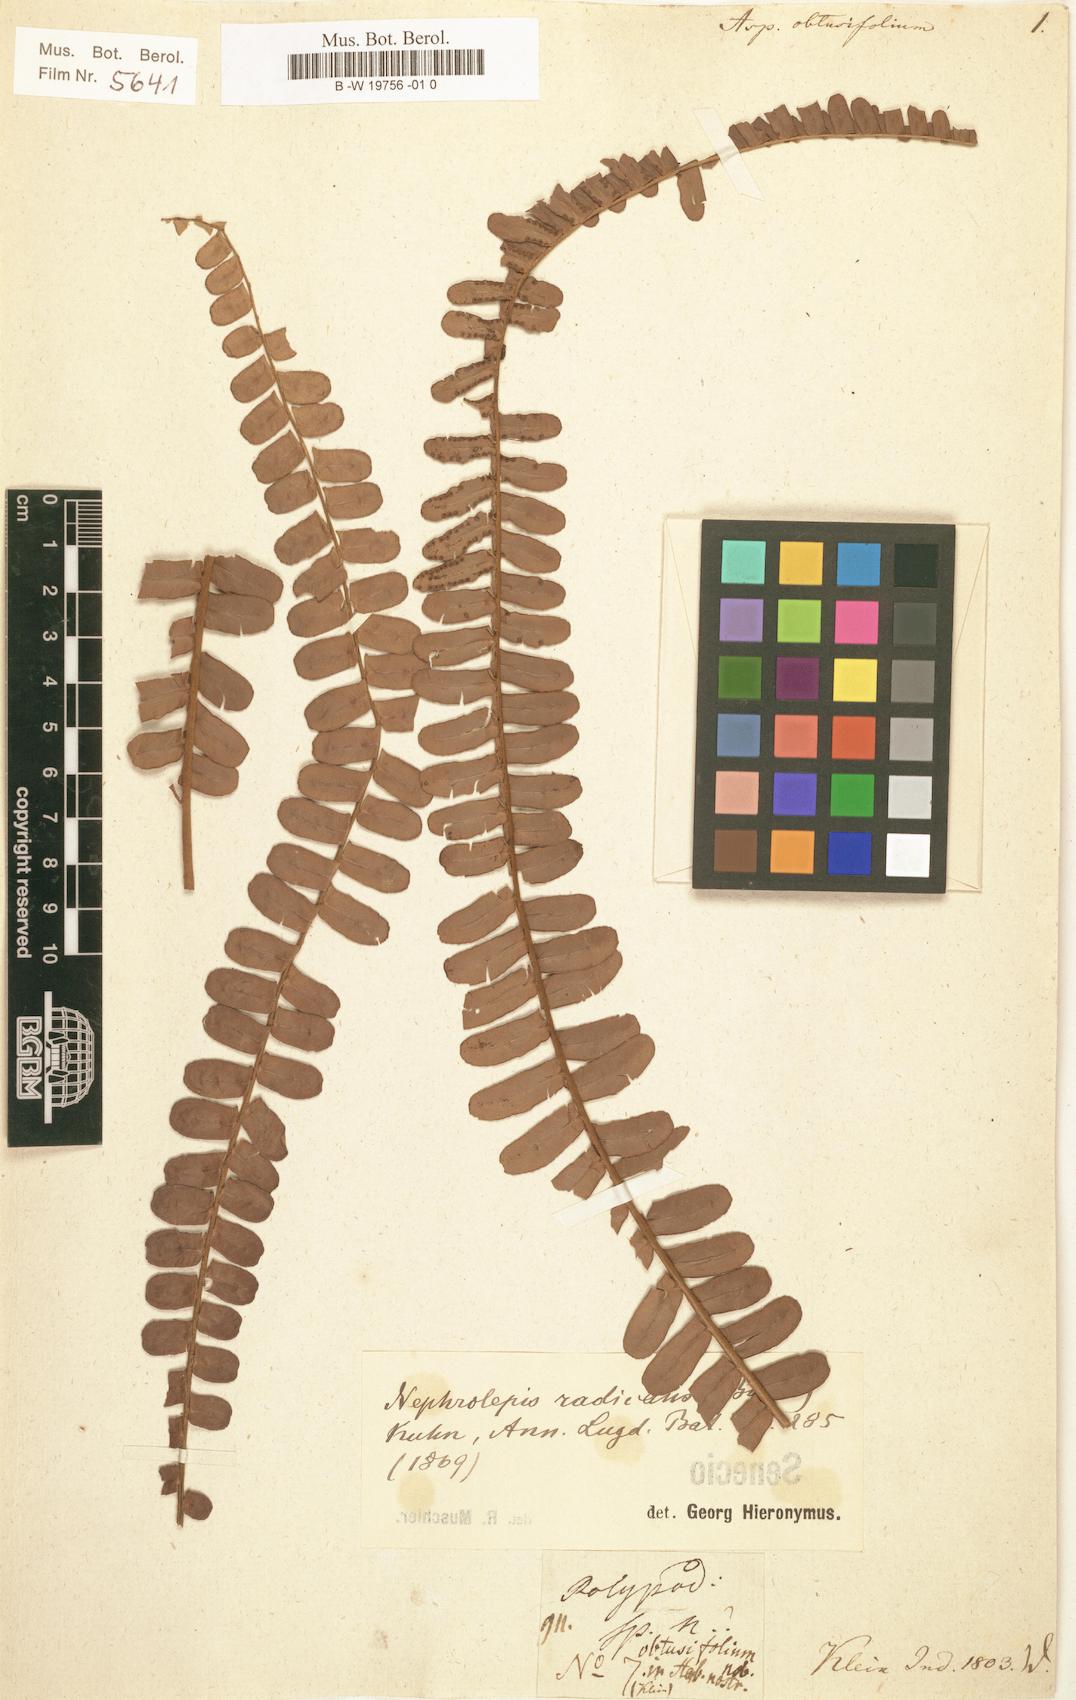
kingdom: Plantae
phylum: Tracheophyta
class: Polypodiopsida
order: Polypodiales
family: Nephrolepidaceae
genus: Nephrolepis
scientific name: Nephrolepis radicans
